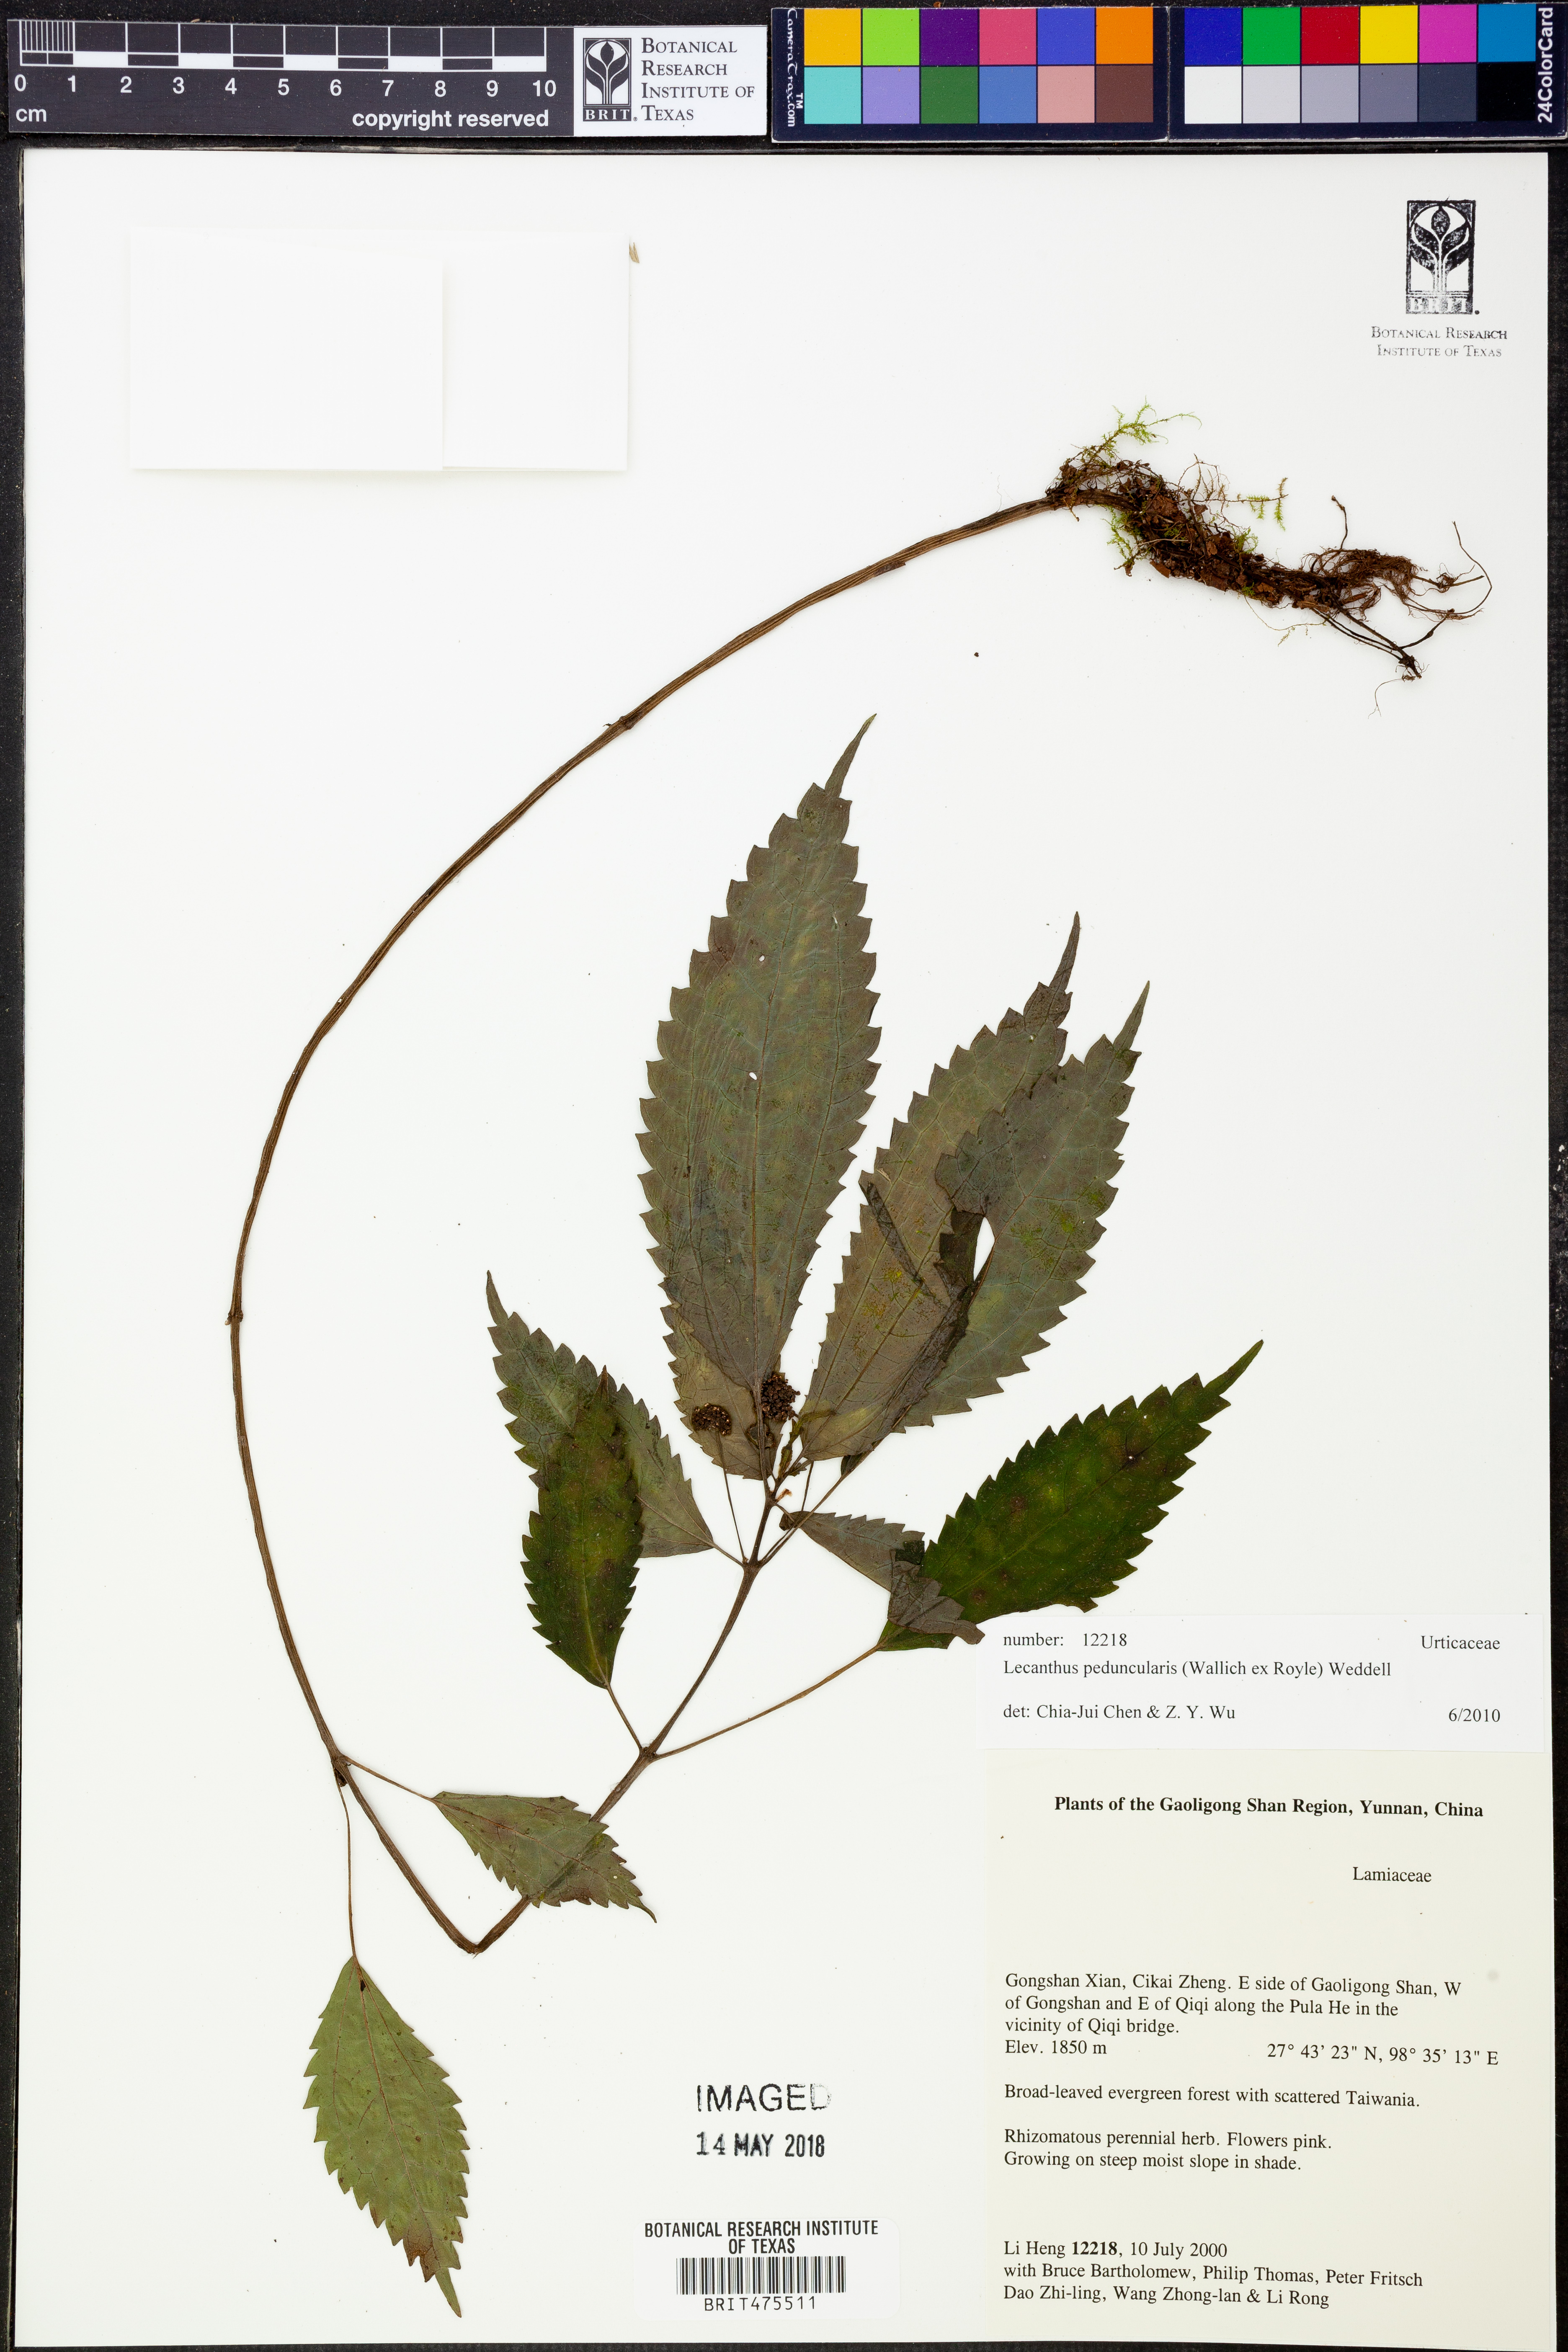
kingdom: Plantae
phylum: Tracheophyta
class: Magnoliopsida
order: Rosales
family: Urticaceae
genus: Lecanthus
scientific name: Lecanthus peduncularis
